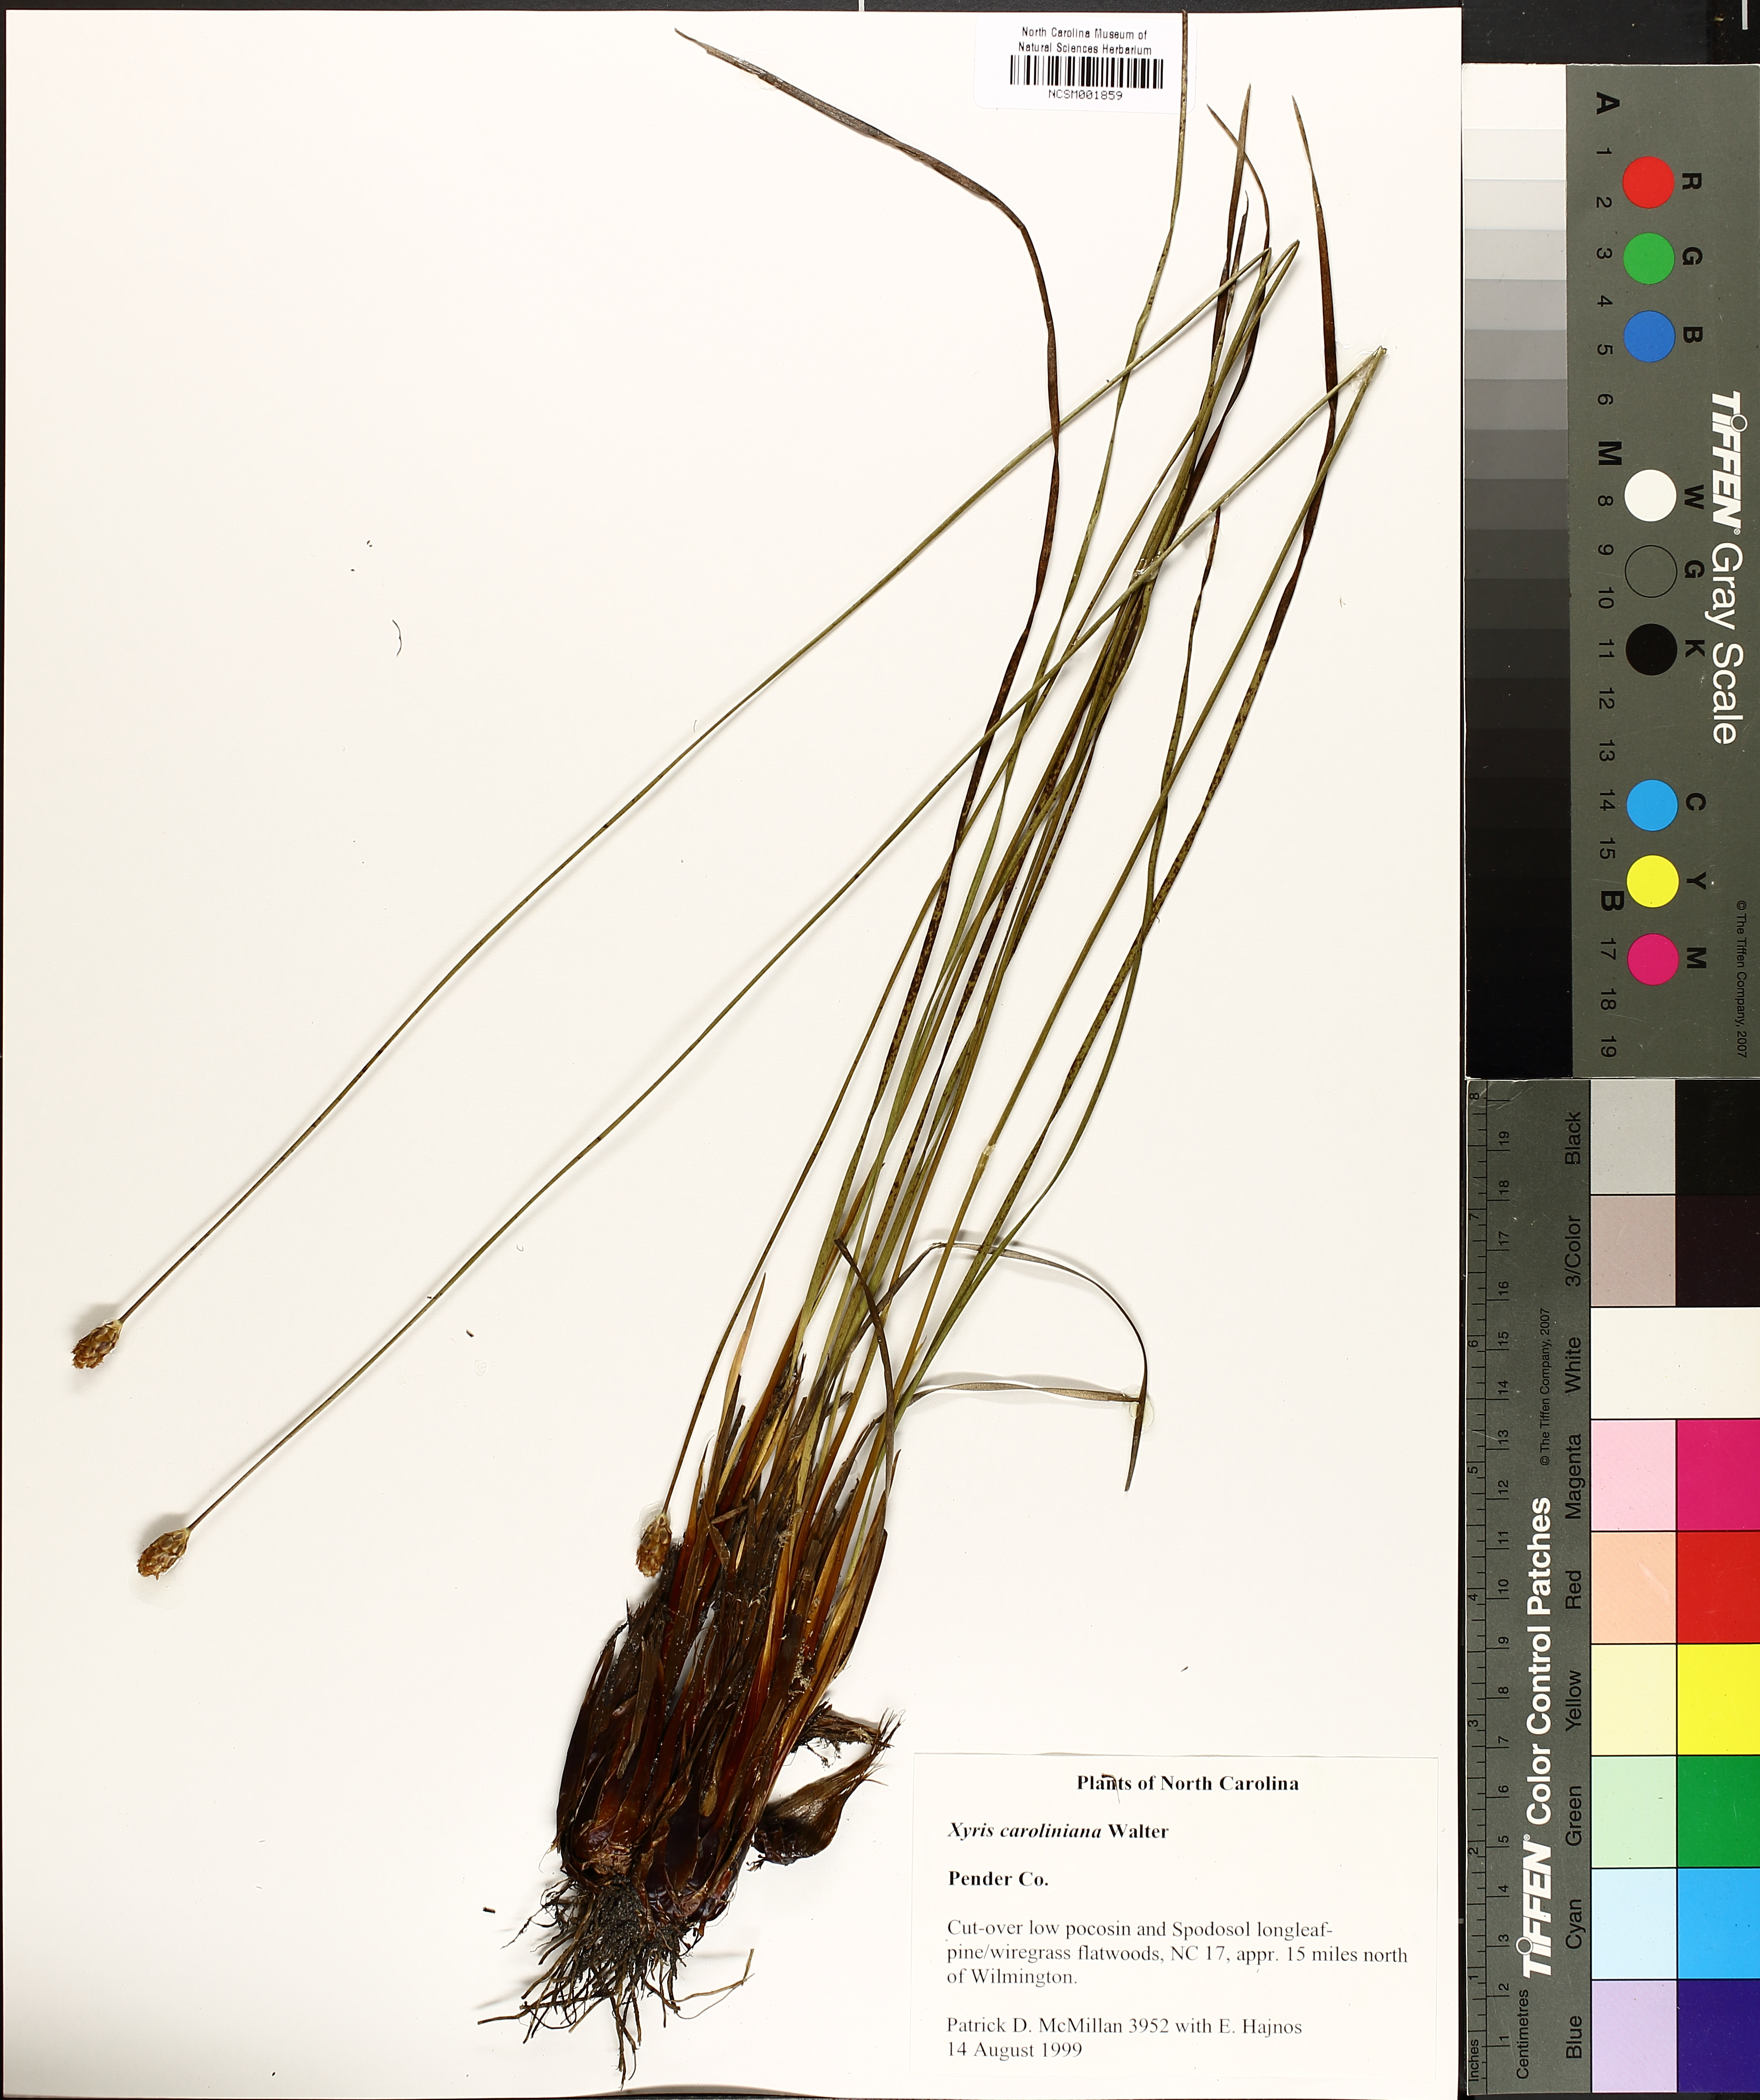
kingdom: Plantae
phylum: Tracheophyta
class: Liliopsida
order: Poales
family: Xyridaceae
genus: Xyris
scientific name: Xyris caroliniana
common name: Carolina yellow-eyed-grass
